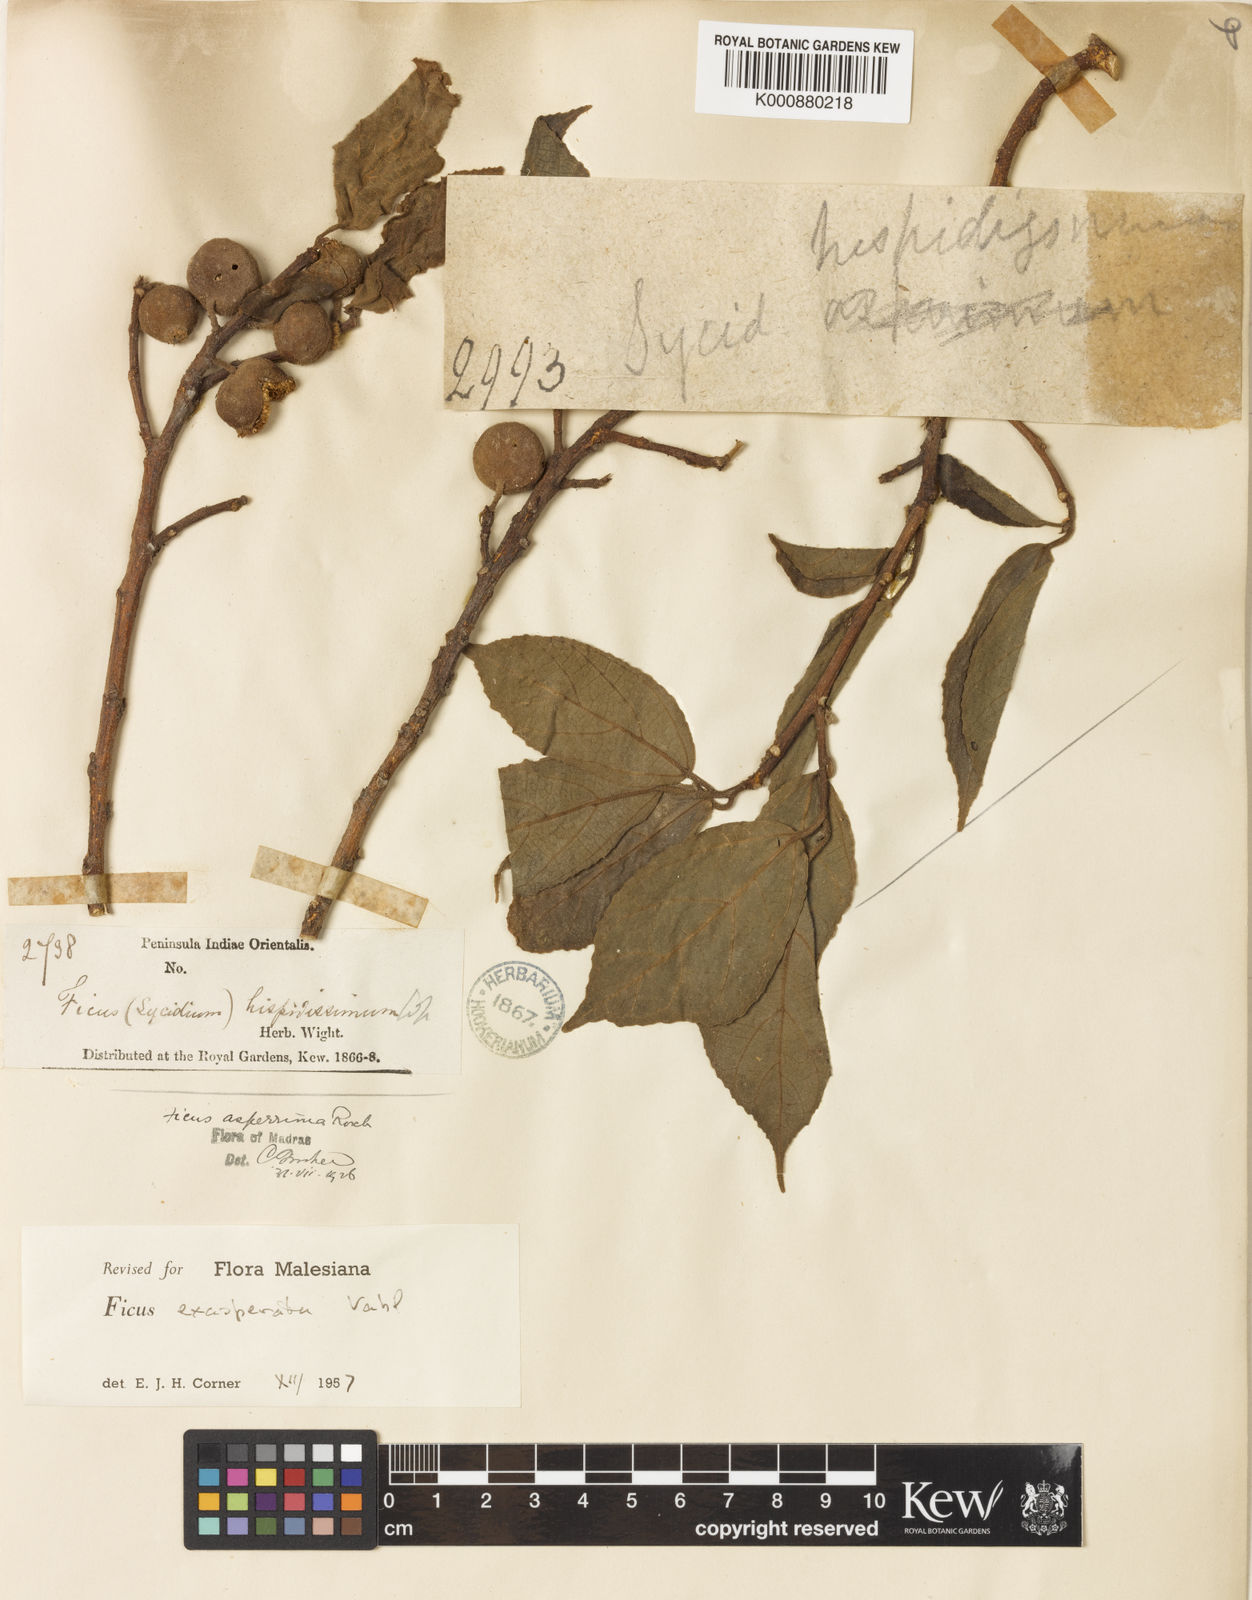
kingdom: Plantae
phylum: Tracheophyta
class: Magnoliopsida
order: Rosales
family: Moraceae
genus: Ficus
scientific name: Ficus exasperata
